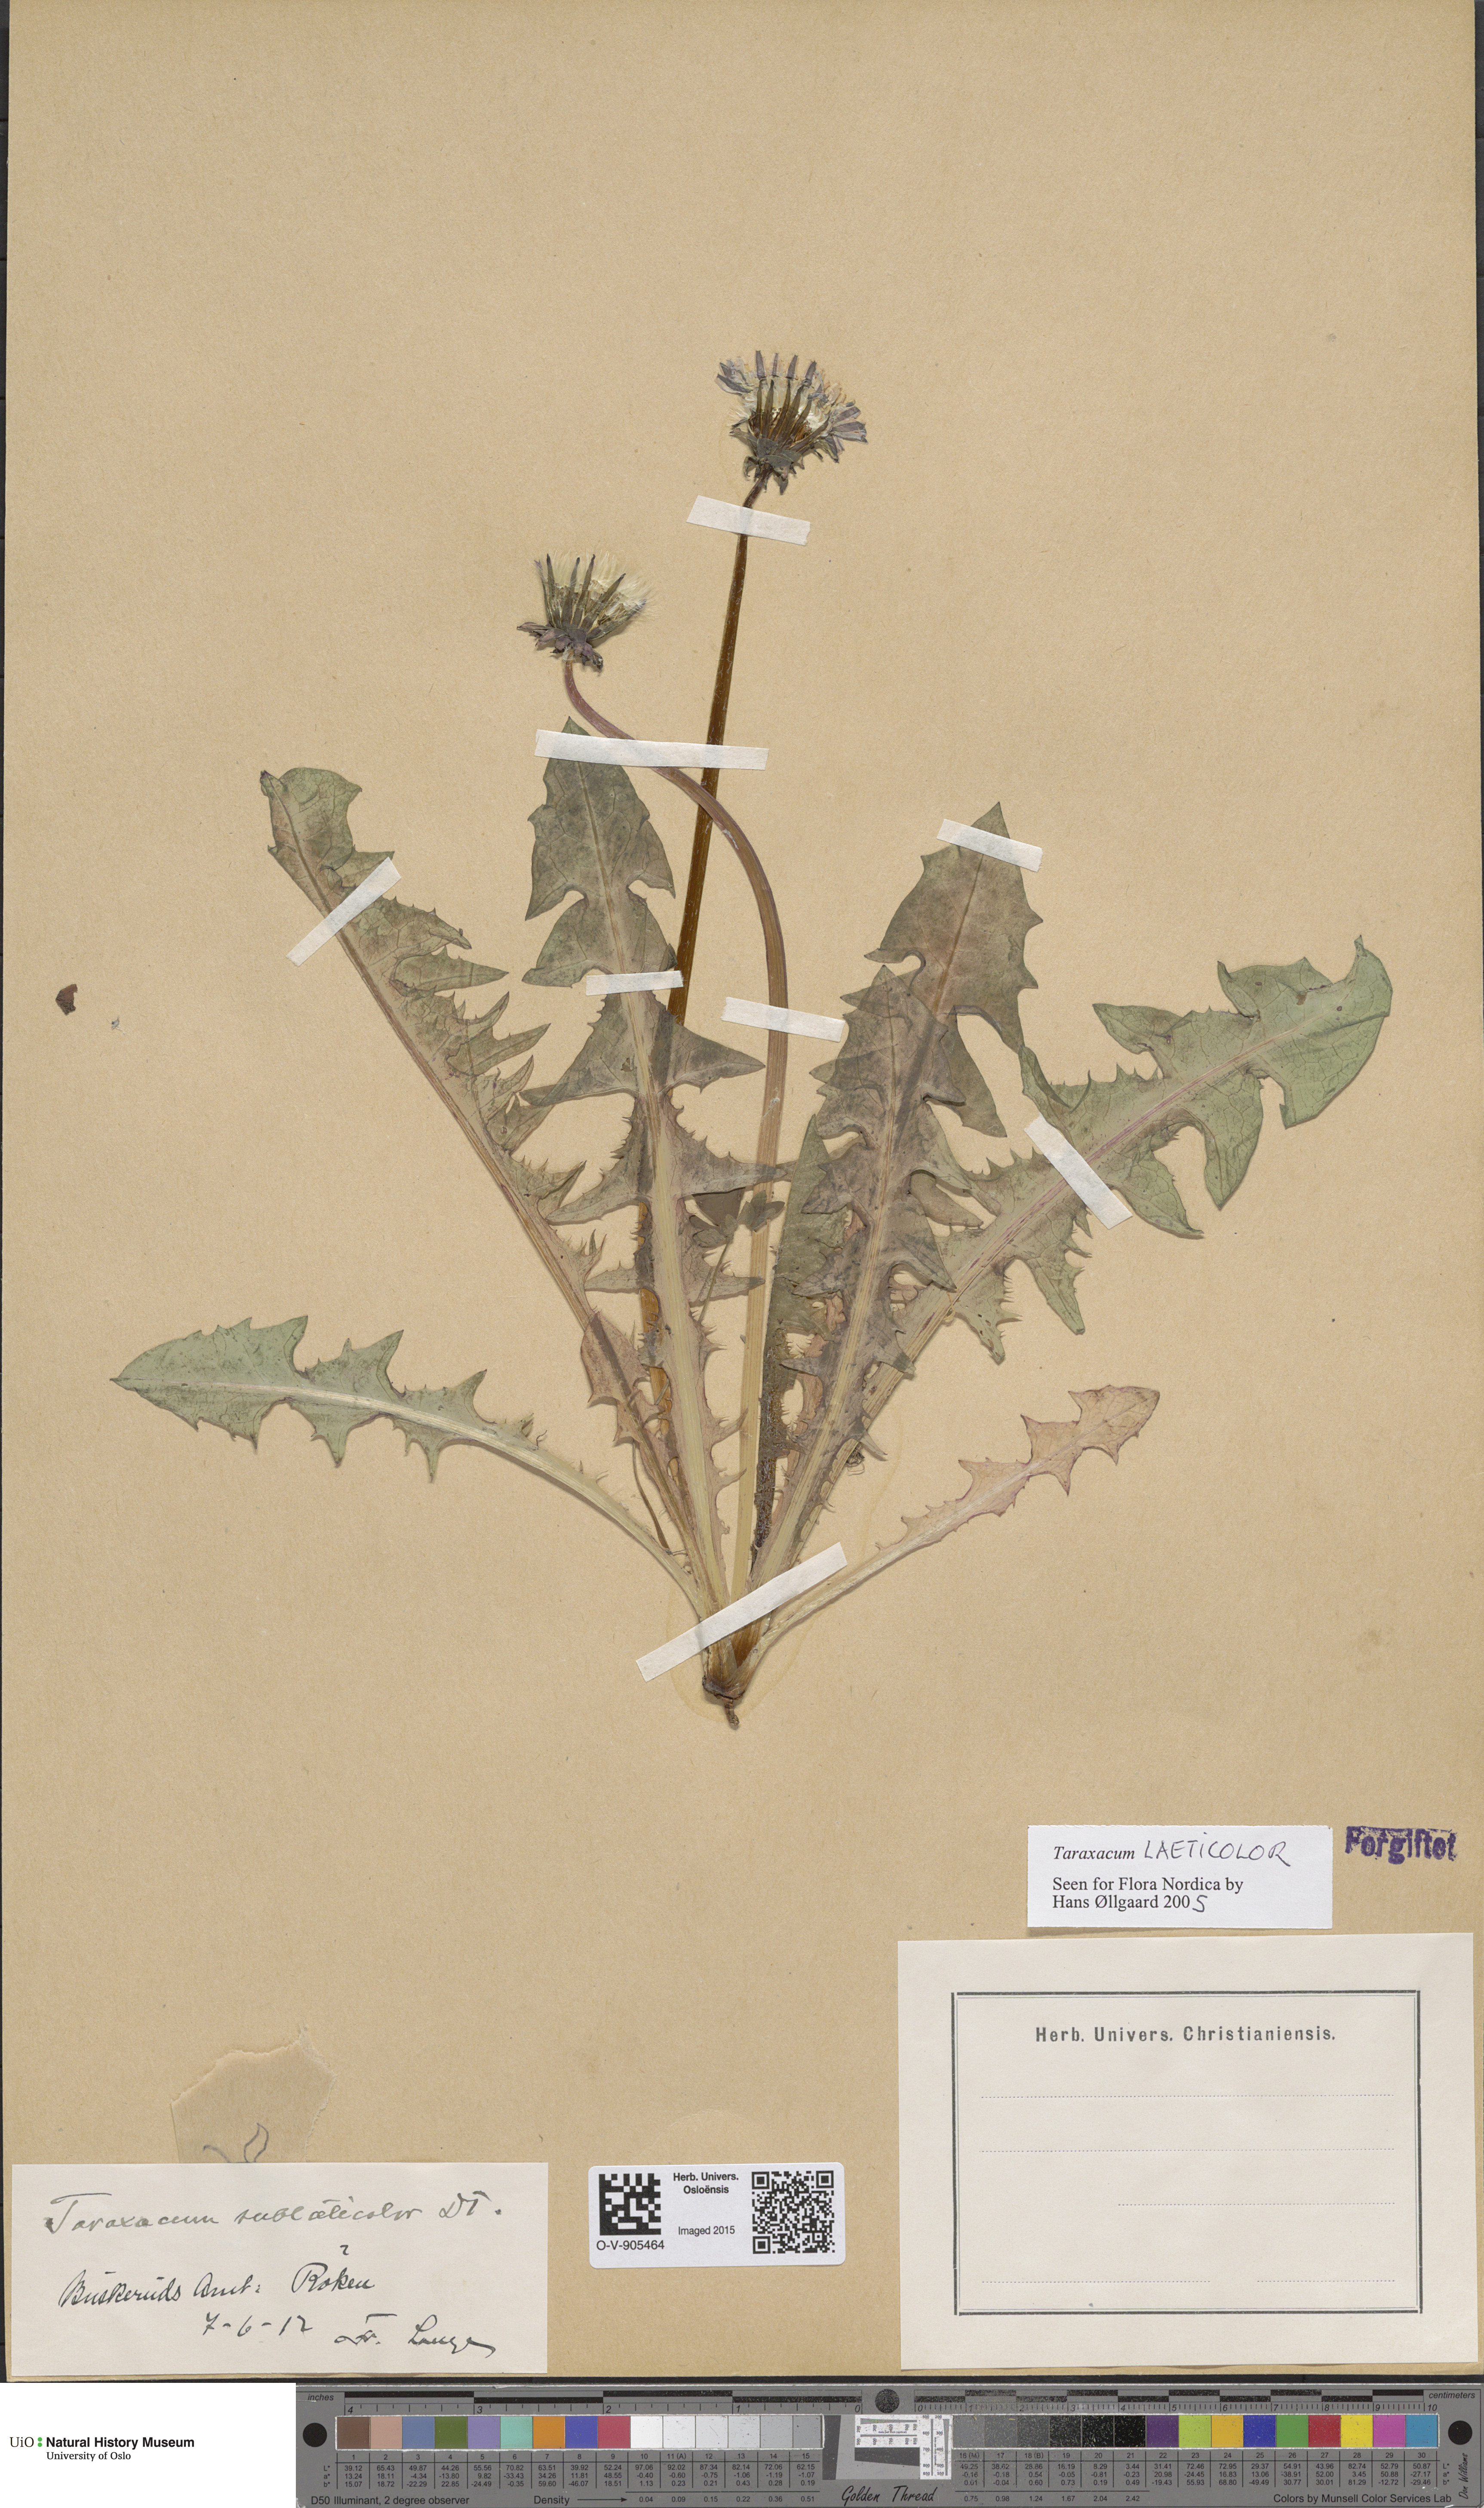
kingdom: Plantae
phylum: Tracheophyta
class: Magnoliopsida
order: Asterales
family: Asteraceae
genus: Taraxacum
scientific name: Taraxacum laeticolor
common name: Pale-stalked dandelion
